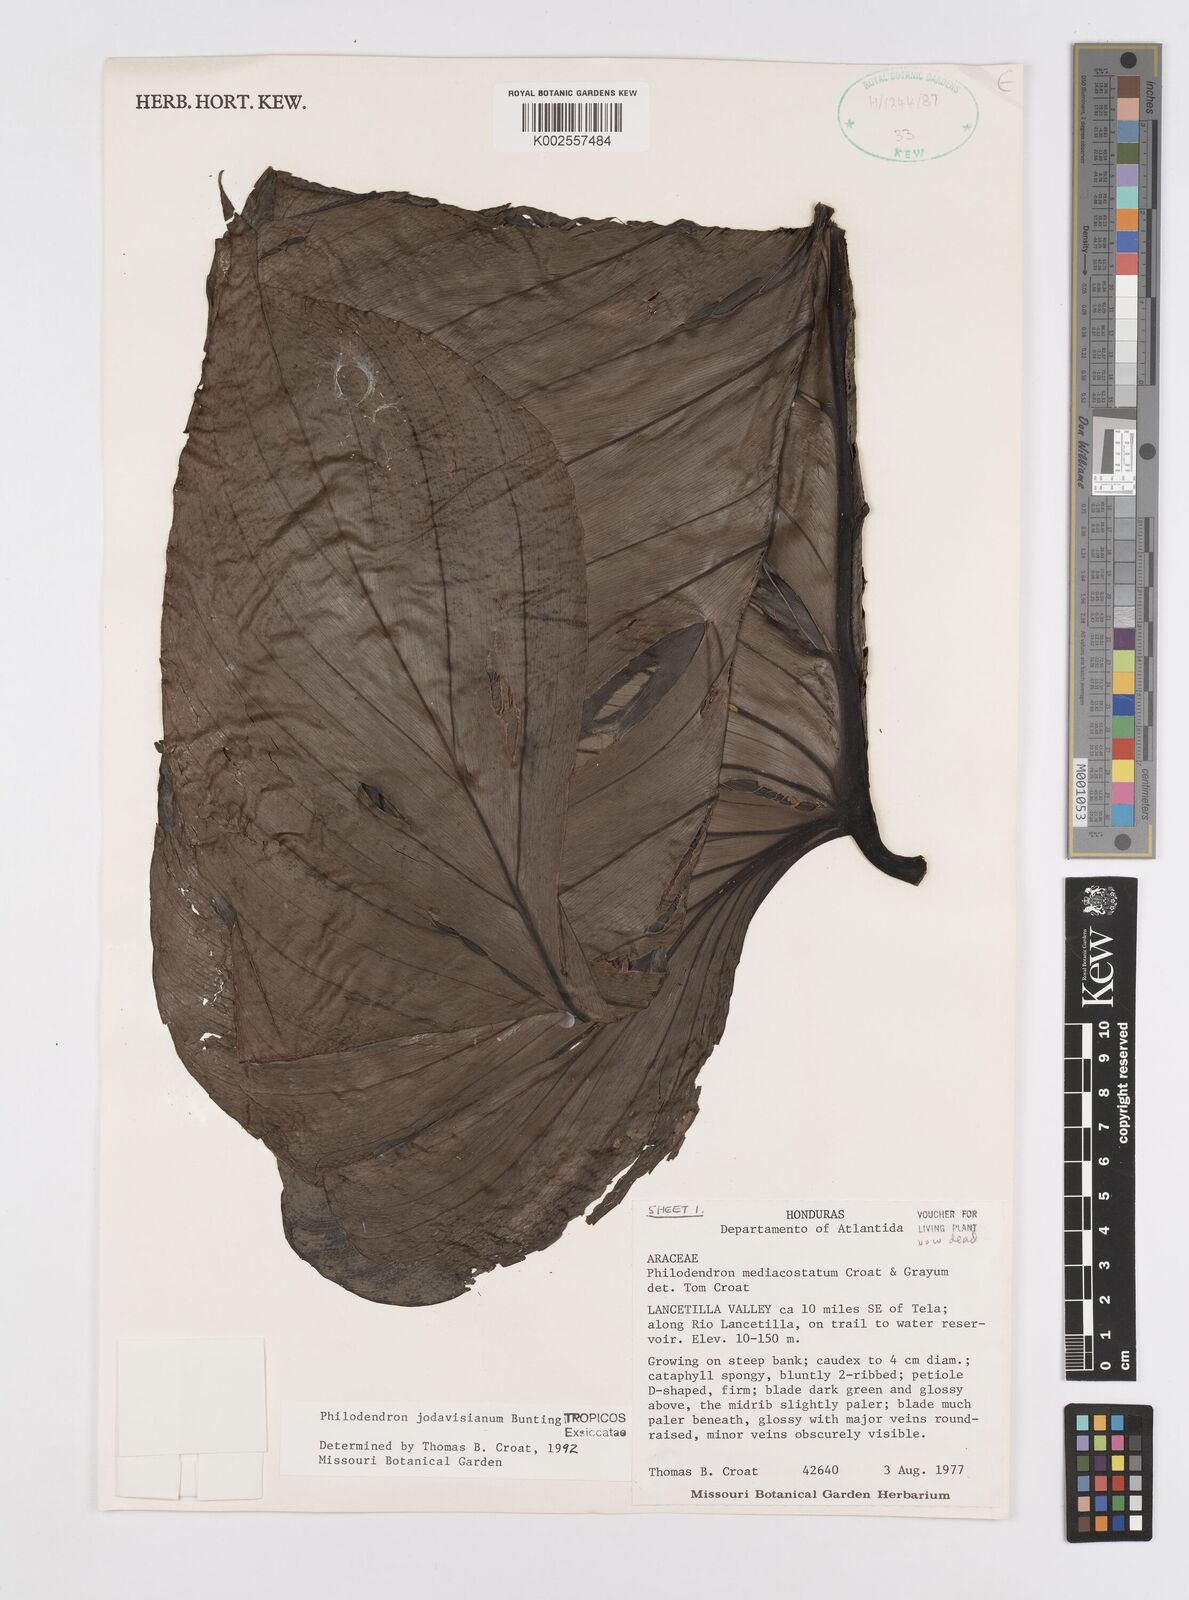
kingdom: Plantae
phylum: Tracheophyta
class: Liliopsida
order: Alismatales
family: Araceae
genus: Philodendron
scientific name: Philodendron jodavisianum
